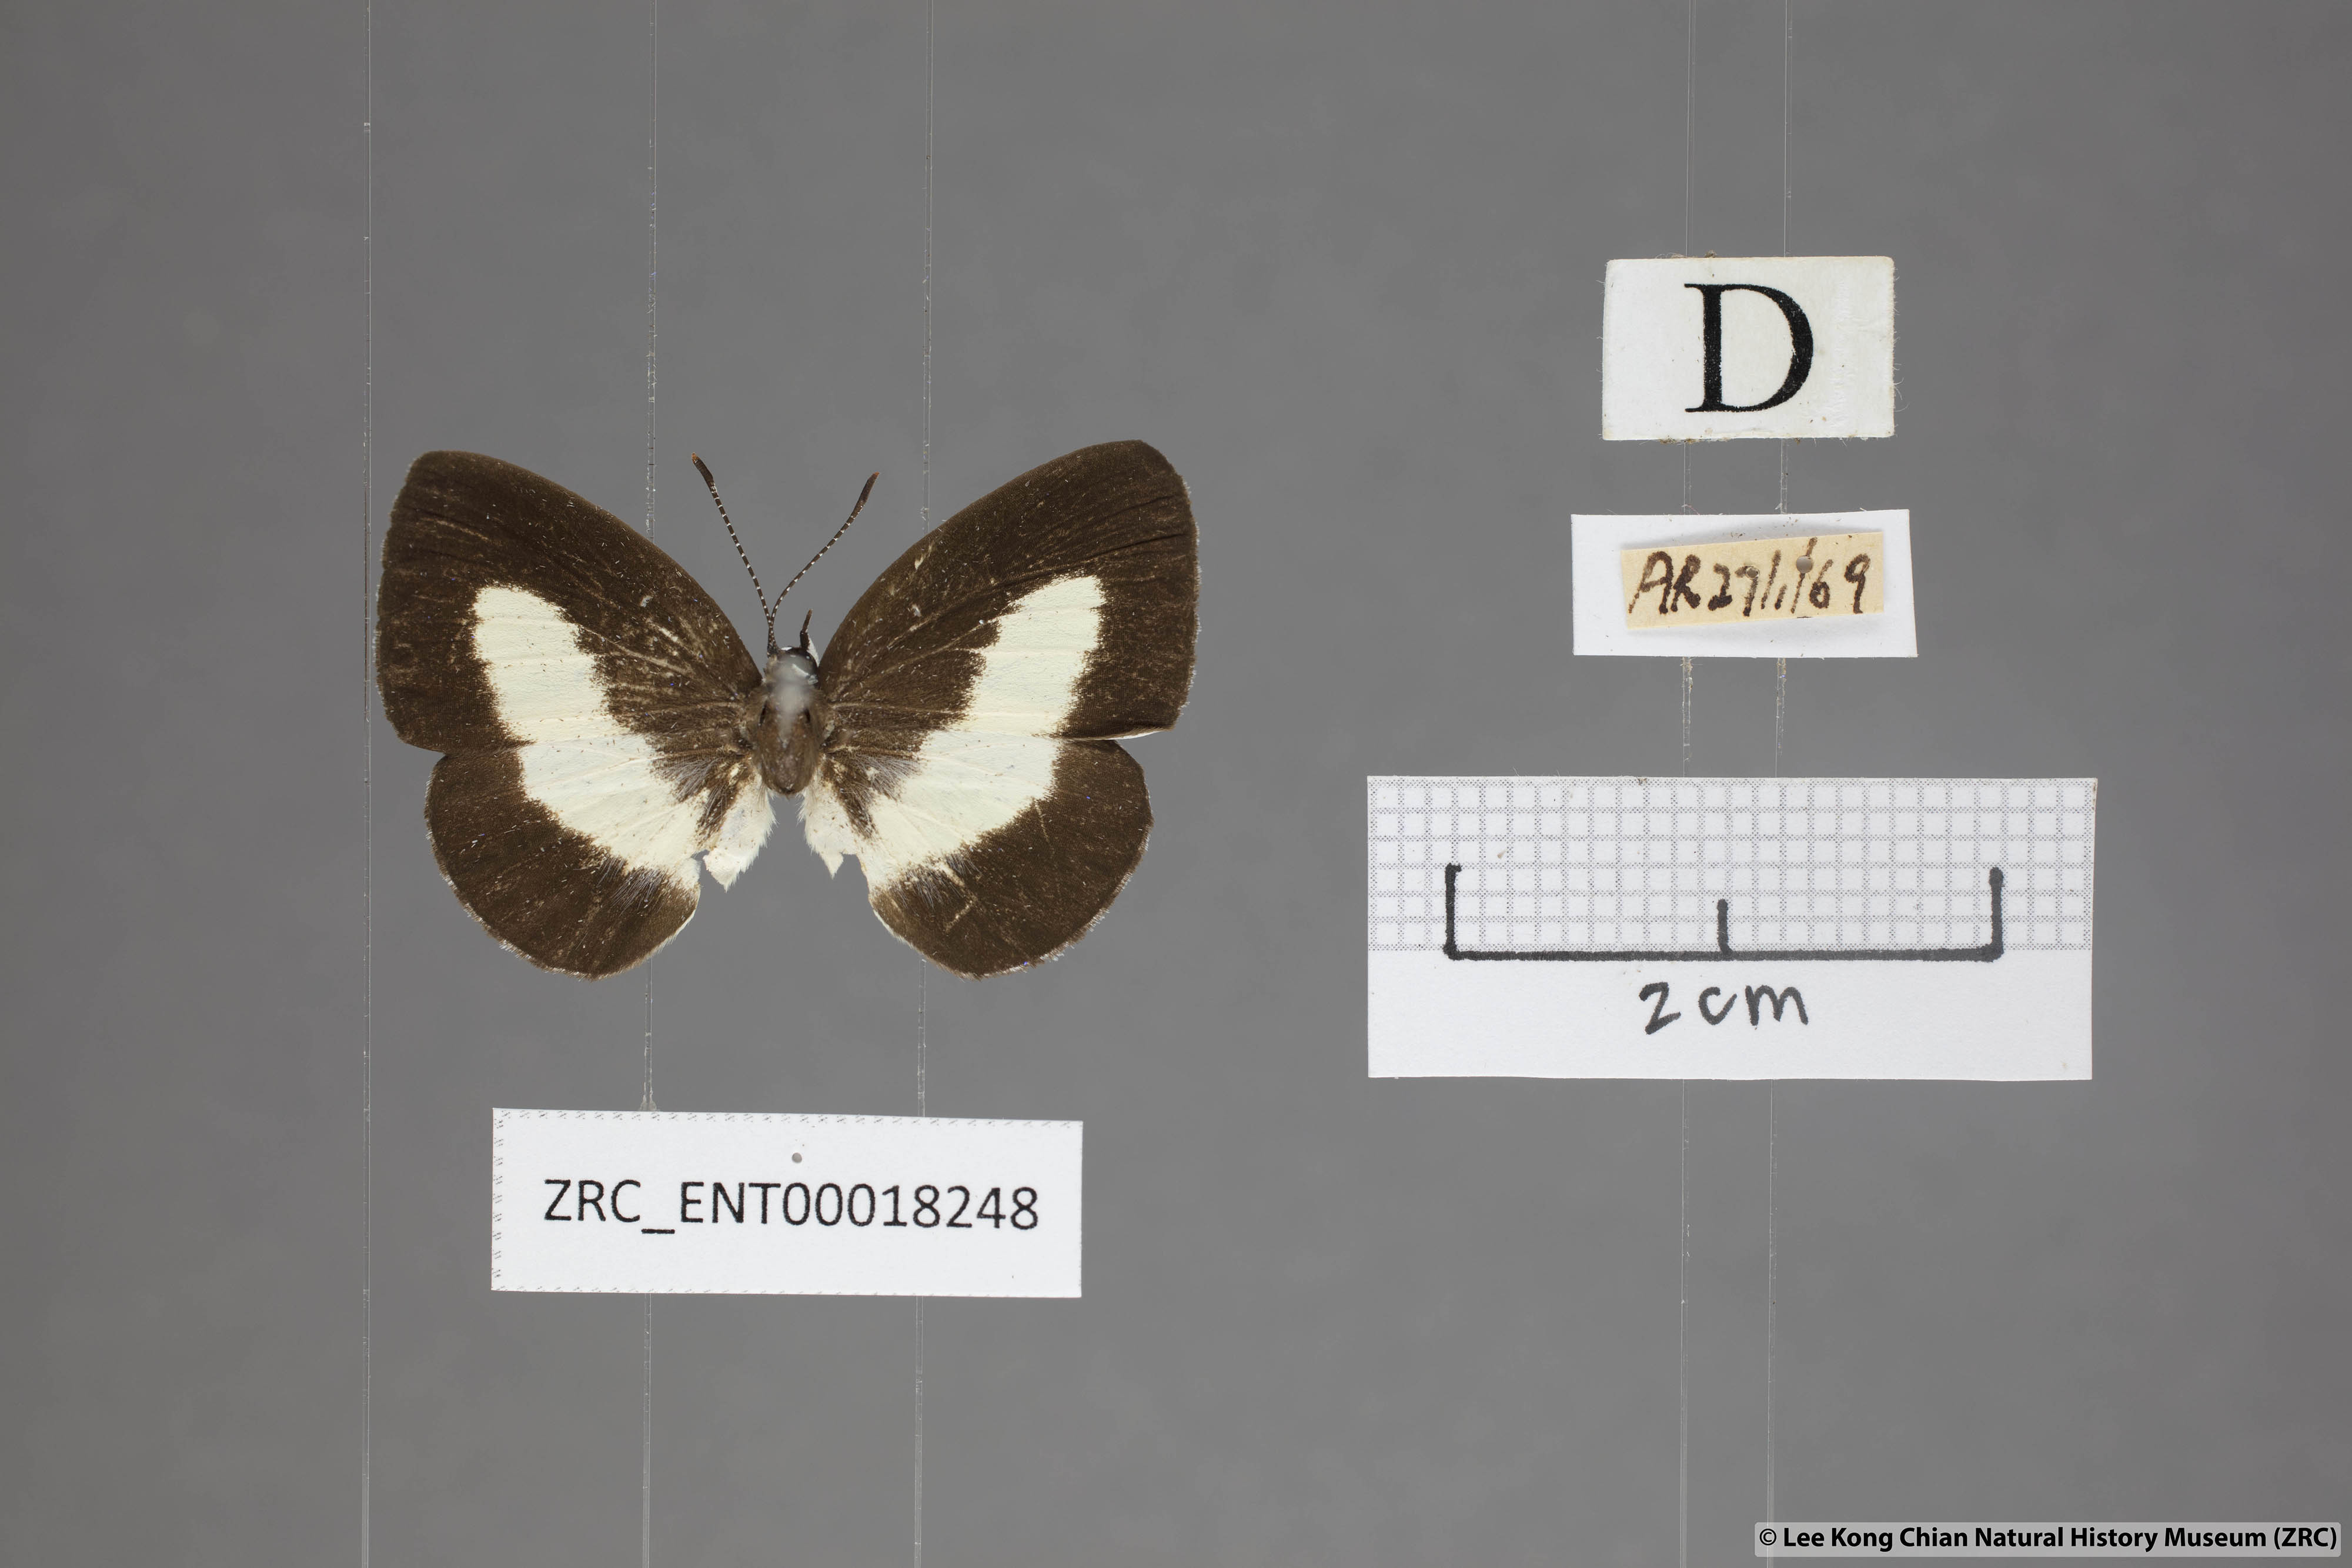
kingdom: Animalia
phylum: Arthropoda
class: Insecta
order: Lepidoptera
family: Lycaenidae
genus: Lycaenopsis
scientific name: Lycaenopsis haraldus
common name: Felder's hedge blue
